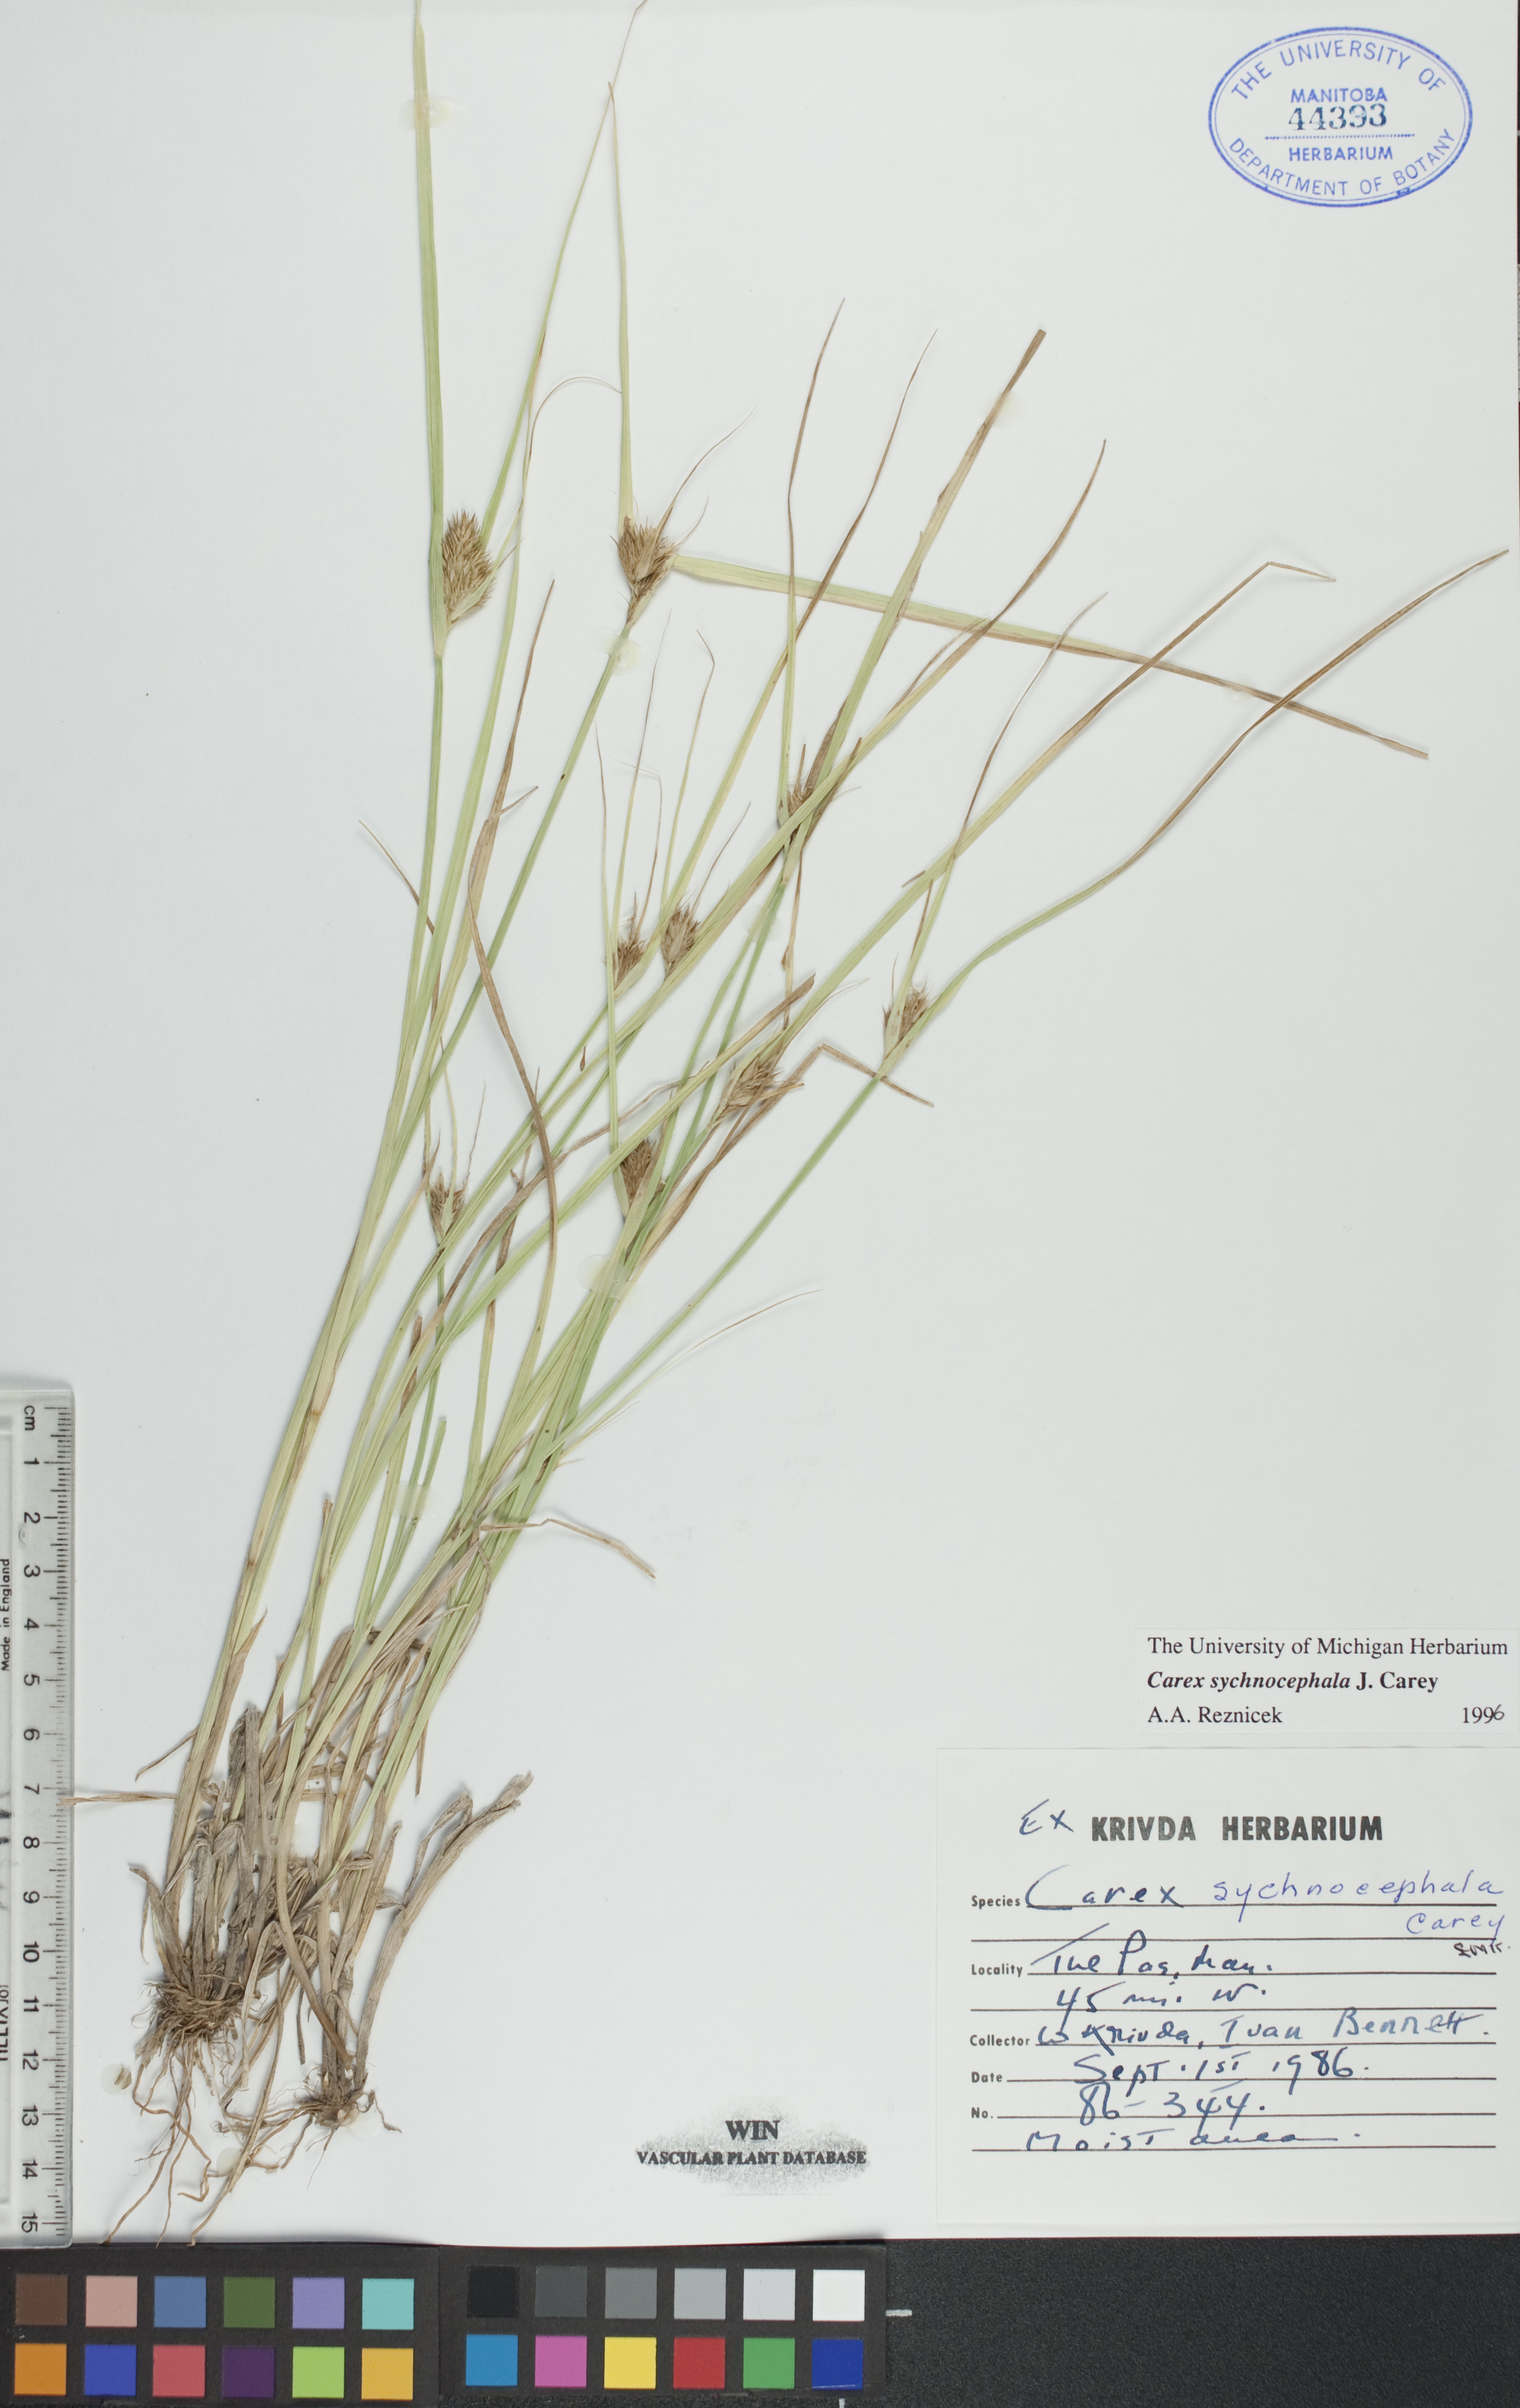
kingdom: Plantae
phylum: Tracheophyta
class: Liliopsida
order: Poales
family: Cyperaceae
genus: Carex
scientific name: Carex sychnocephala
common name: Dense long-beaked sedge
